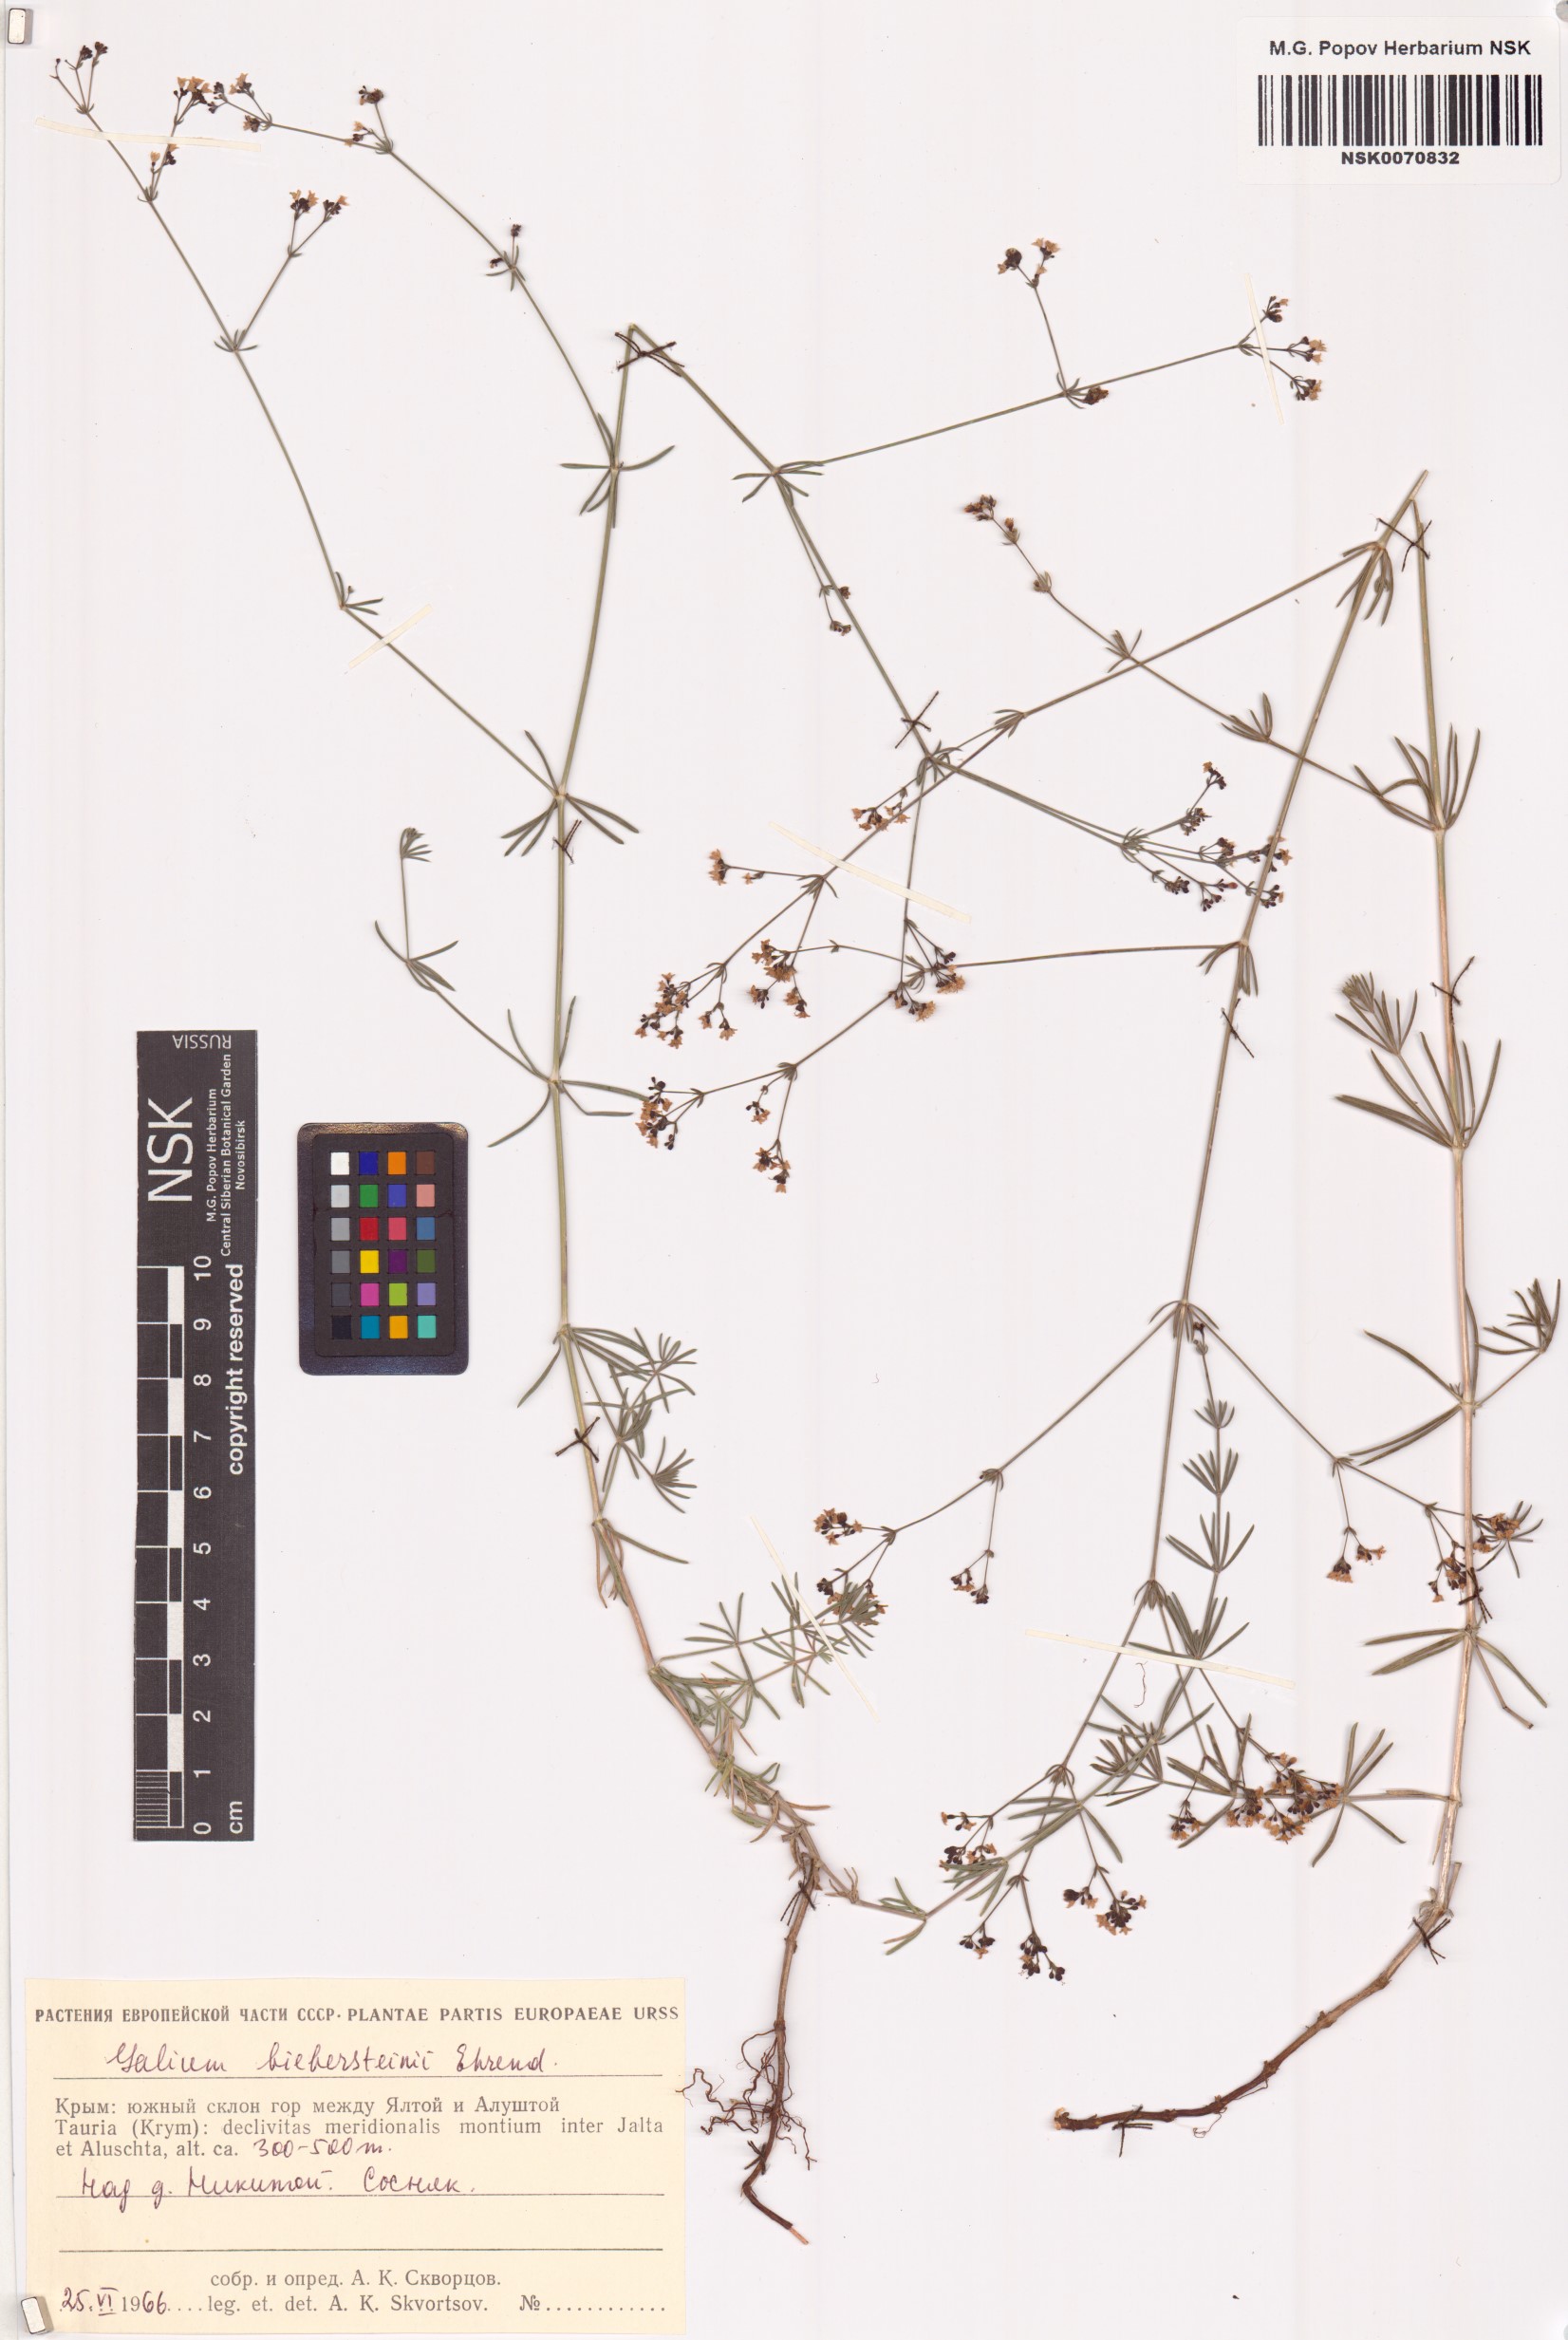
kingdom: Plantae
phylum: Tracheophyta
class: Magnoliopsida
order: Gentianales
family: Rubiaceae
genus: Galium
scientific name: Galium xeroticum
